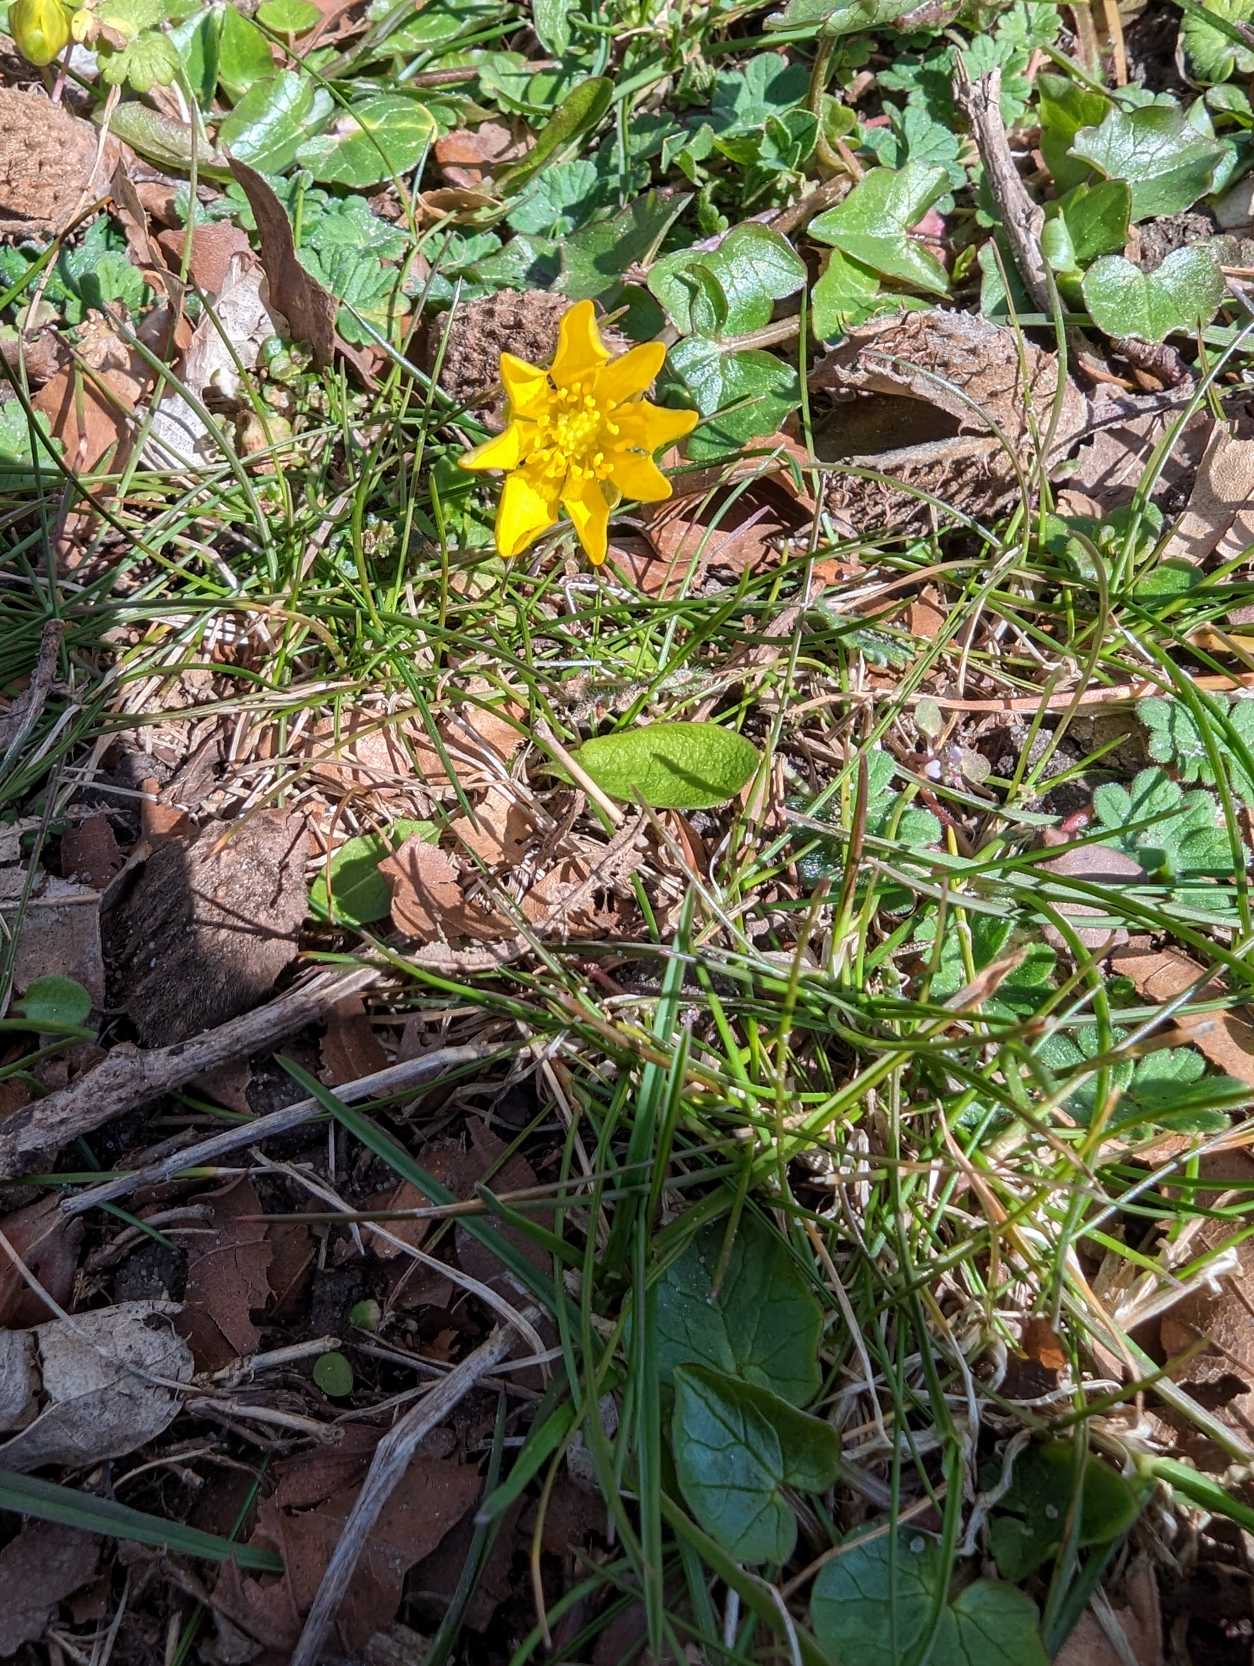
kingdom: Plantae
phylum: Tracheophyta
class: Magnoliopsida
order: Ranunculales
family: Ranunculaceae
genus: Ficaria
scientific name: Ficaria verna
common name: Vorterod
